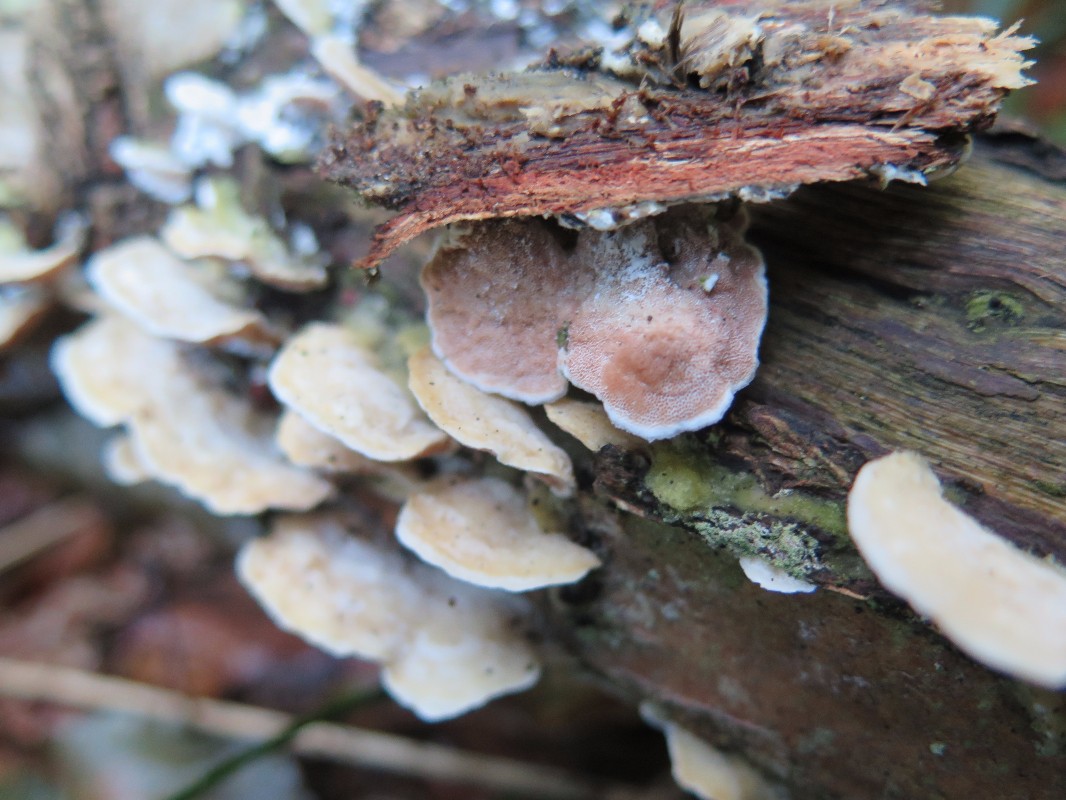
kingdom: Fungi
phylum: Basidiomycota
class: Agaricomycetes
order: Polyporales
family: Irpicaceae
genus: Vitreoporus
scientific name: Vitreoporus dichrous
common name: tofarvet foldporesvamp
